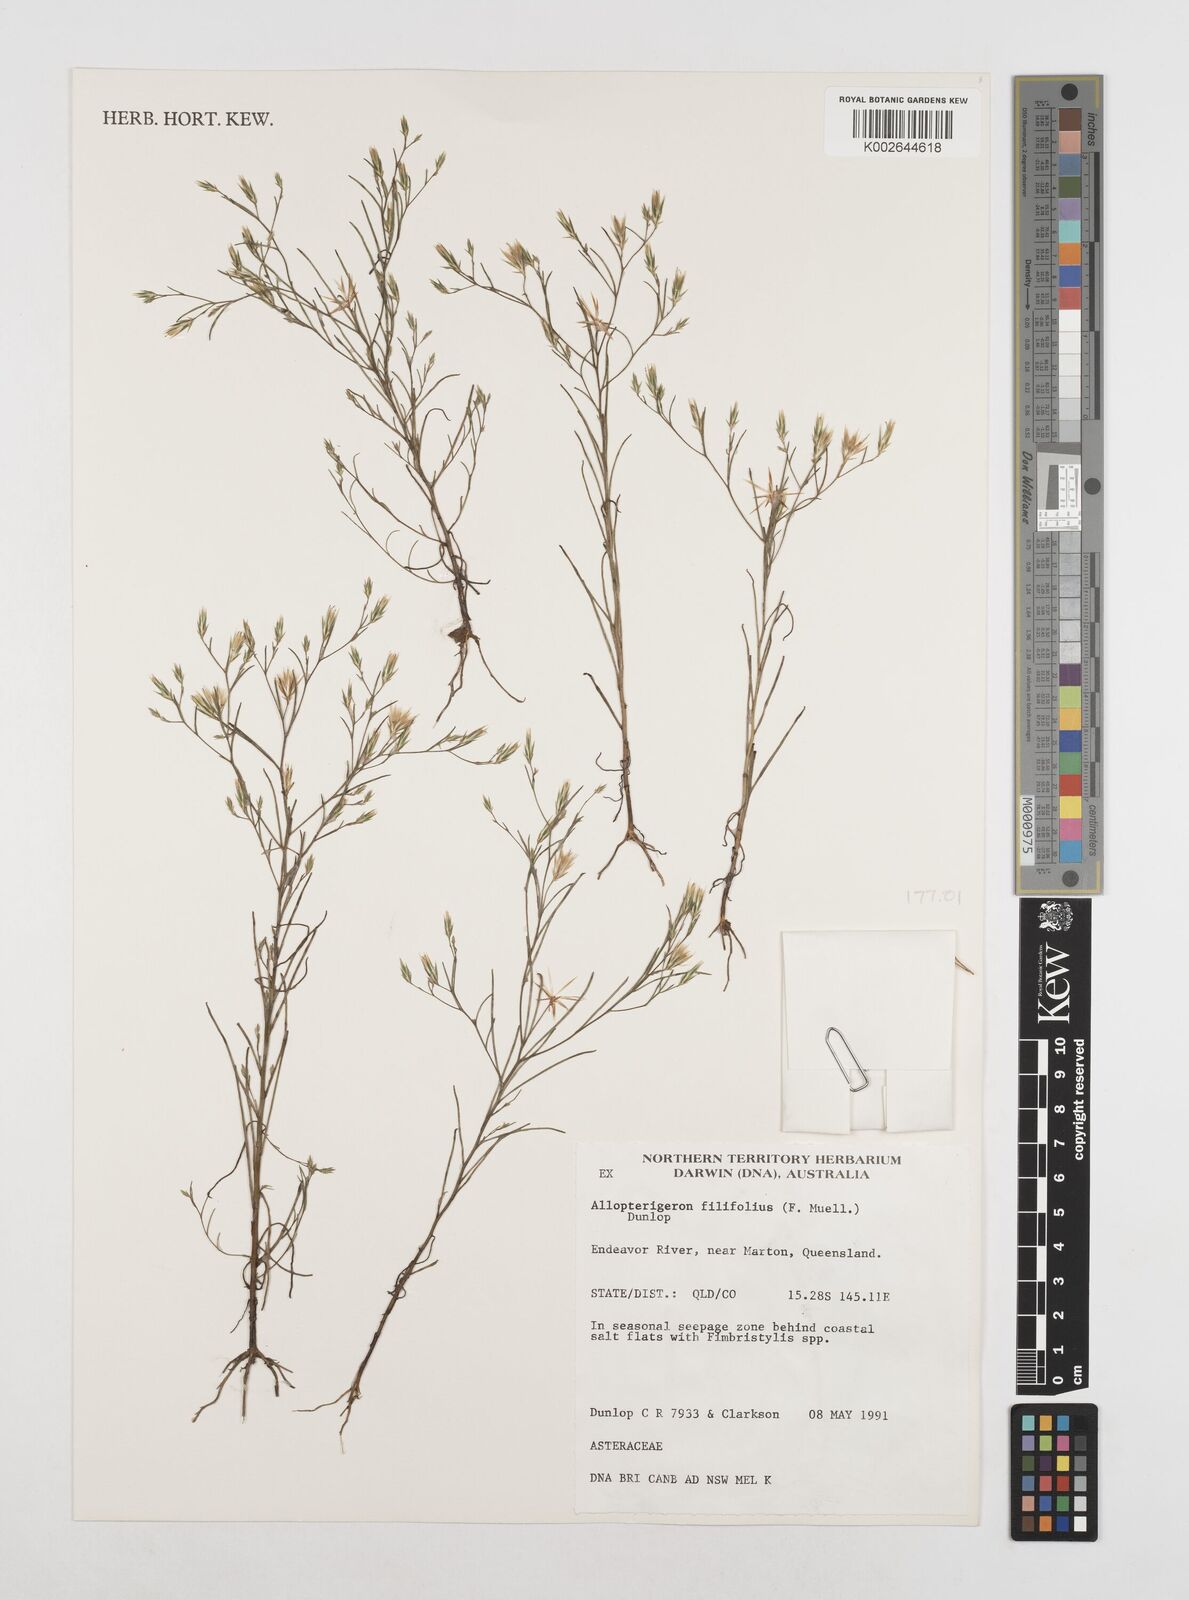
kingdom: Plantae
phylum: Tracheophyta
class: Magnoliopsida
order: Asterales
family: Asteraceae
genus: Allopterigeron
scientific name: Allopterigeron filifolius
